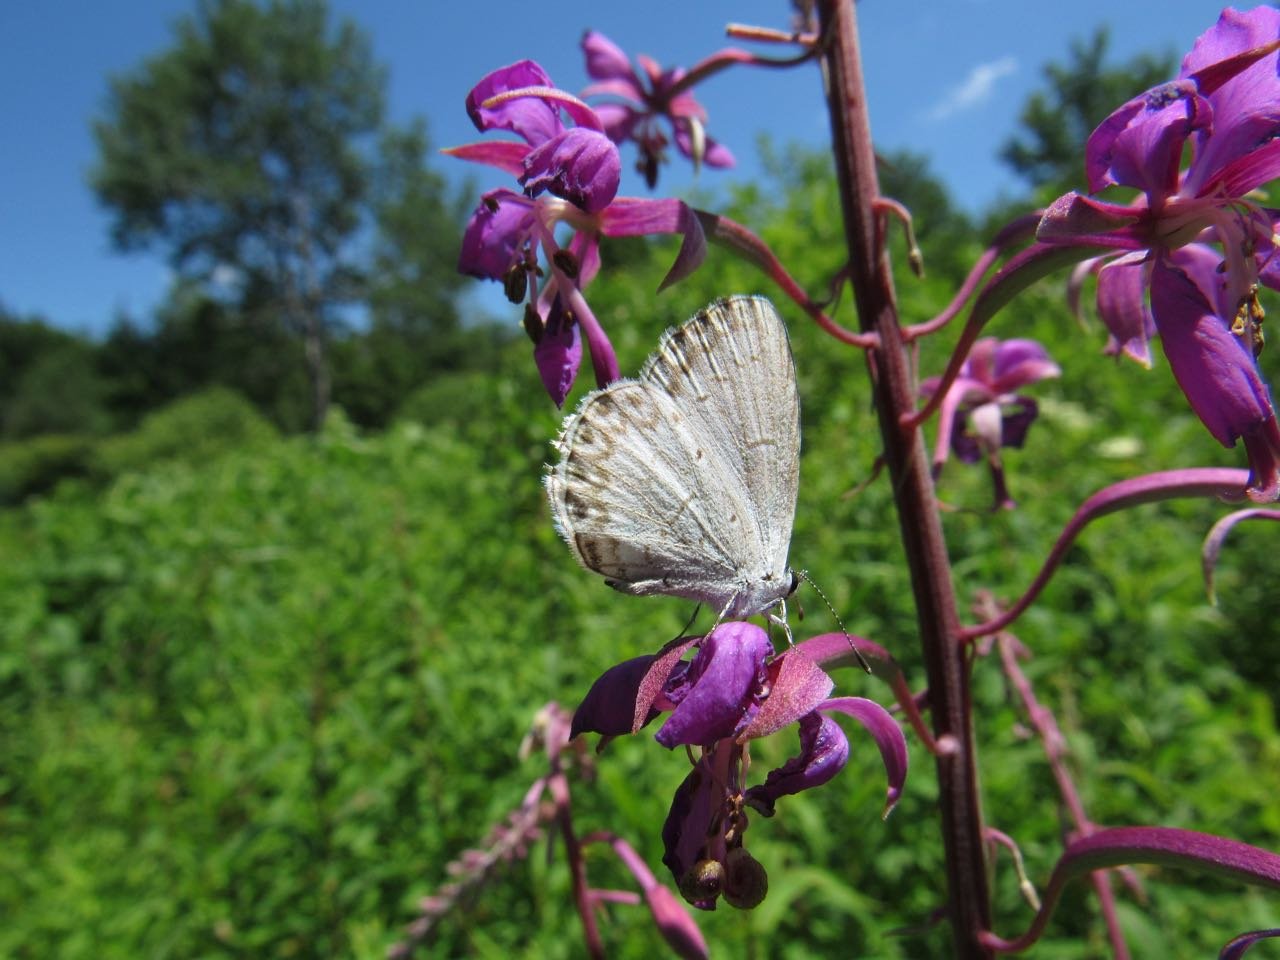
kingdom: Animalia
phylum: Arthropoda
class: Insecta
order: Lepidoptera
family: Lycaenidae
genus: Celastrina
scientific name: Celastrina
